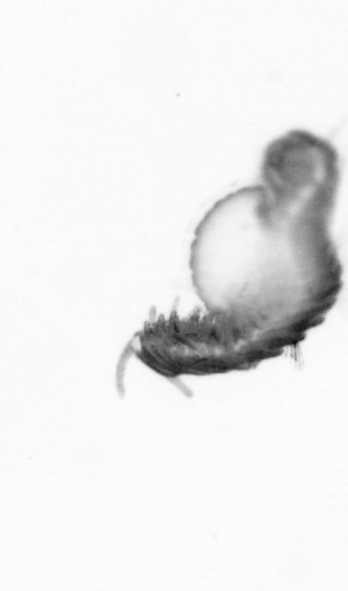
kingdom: Animalia
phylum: Annelida
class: Polychaeta
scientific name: Polychaeta
